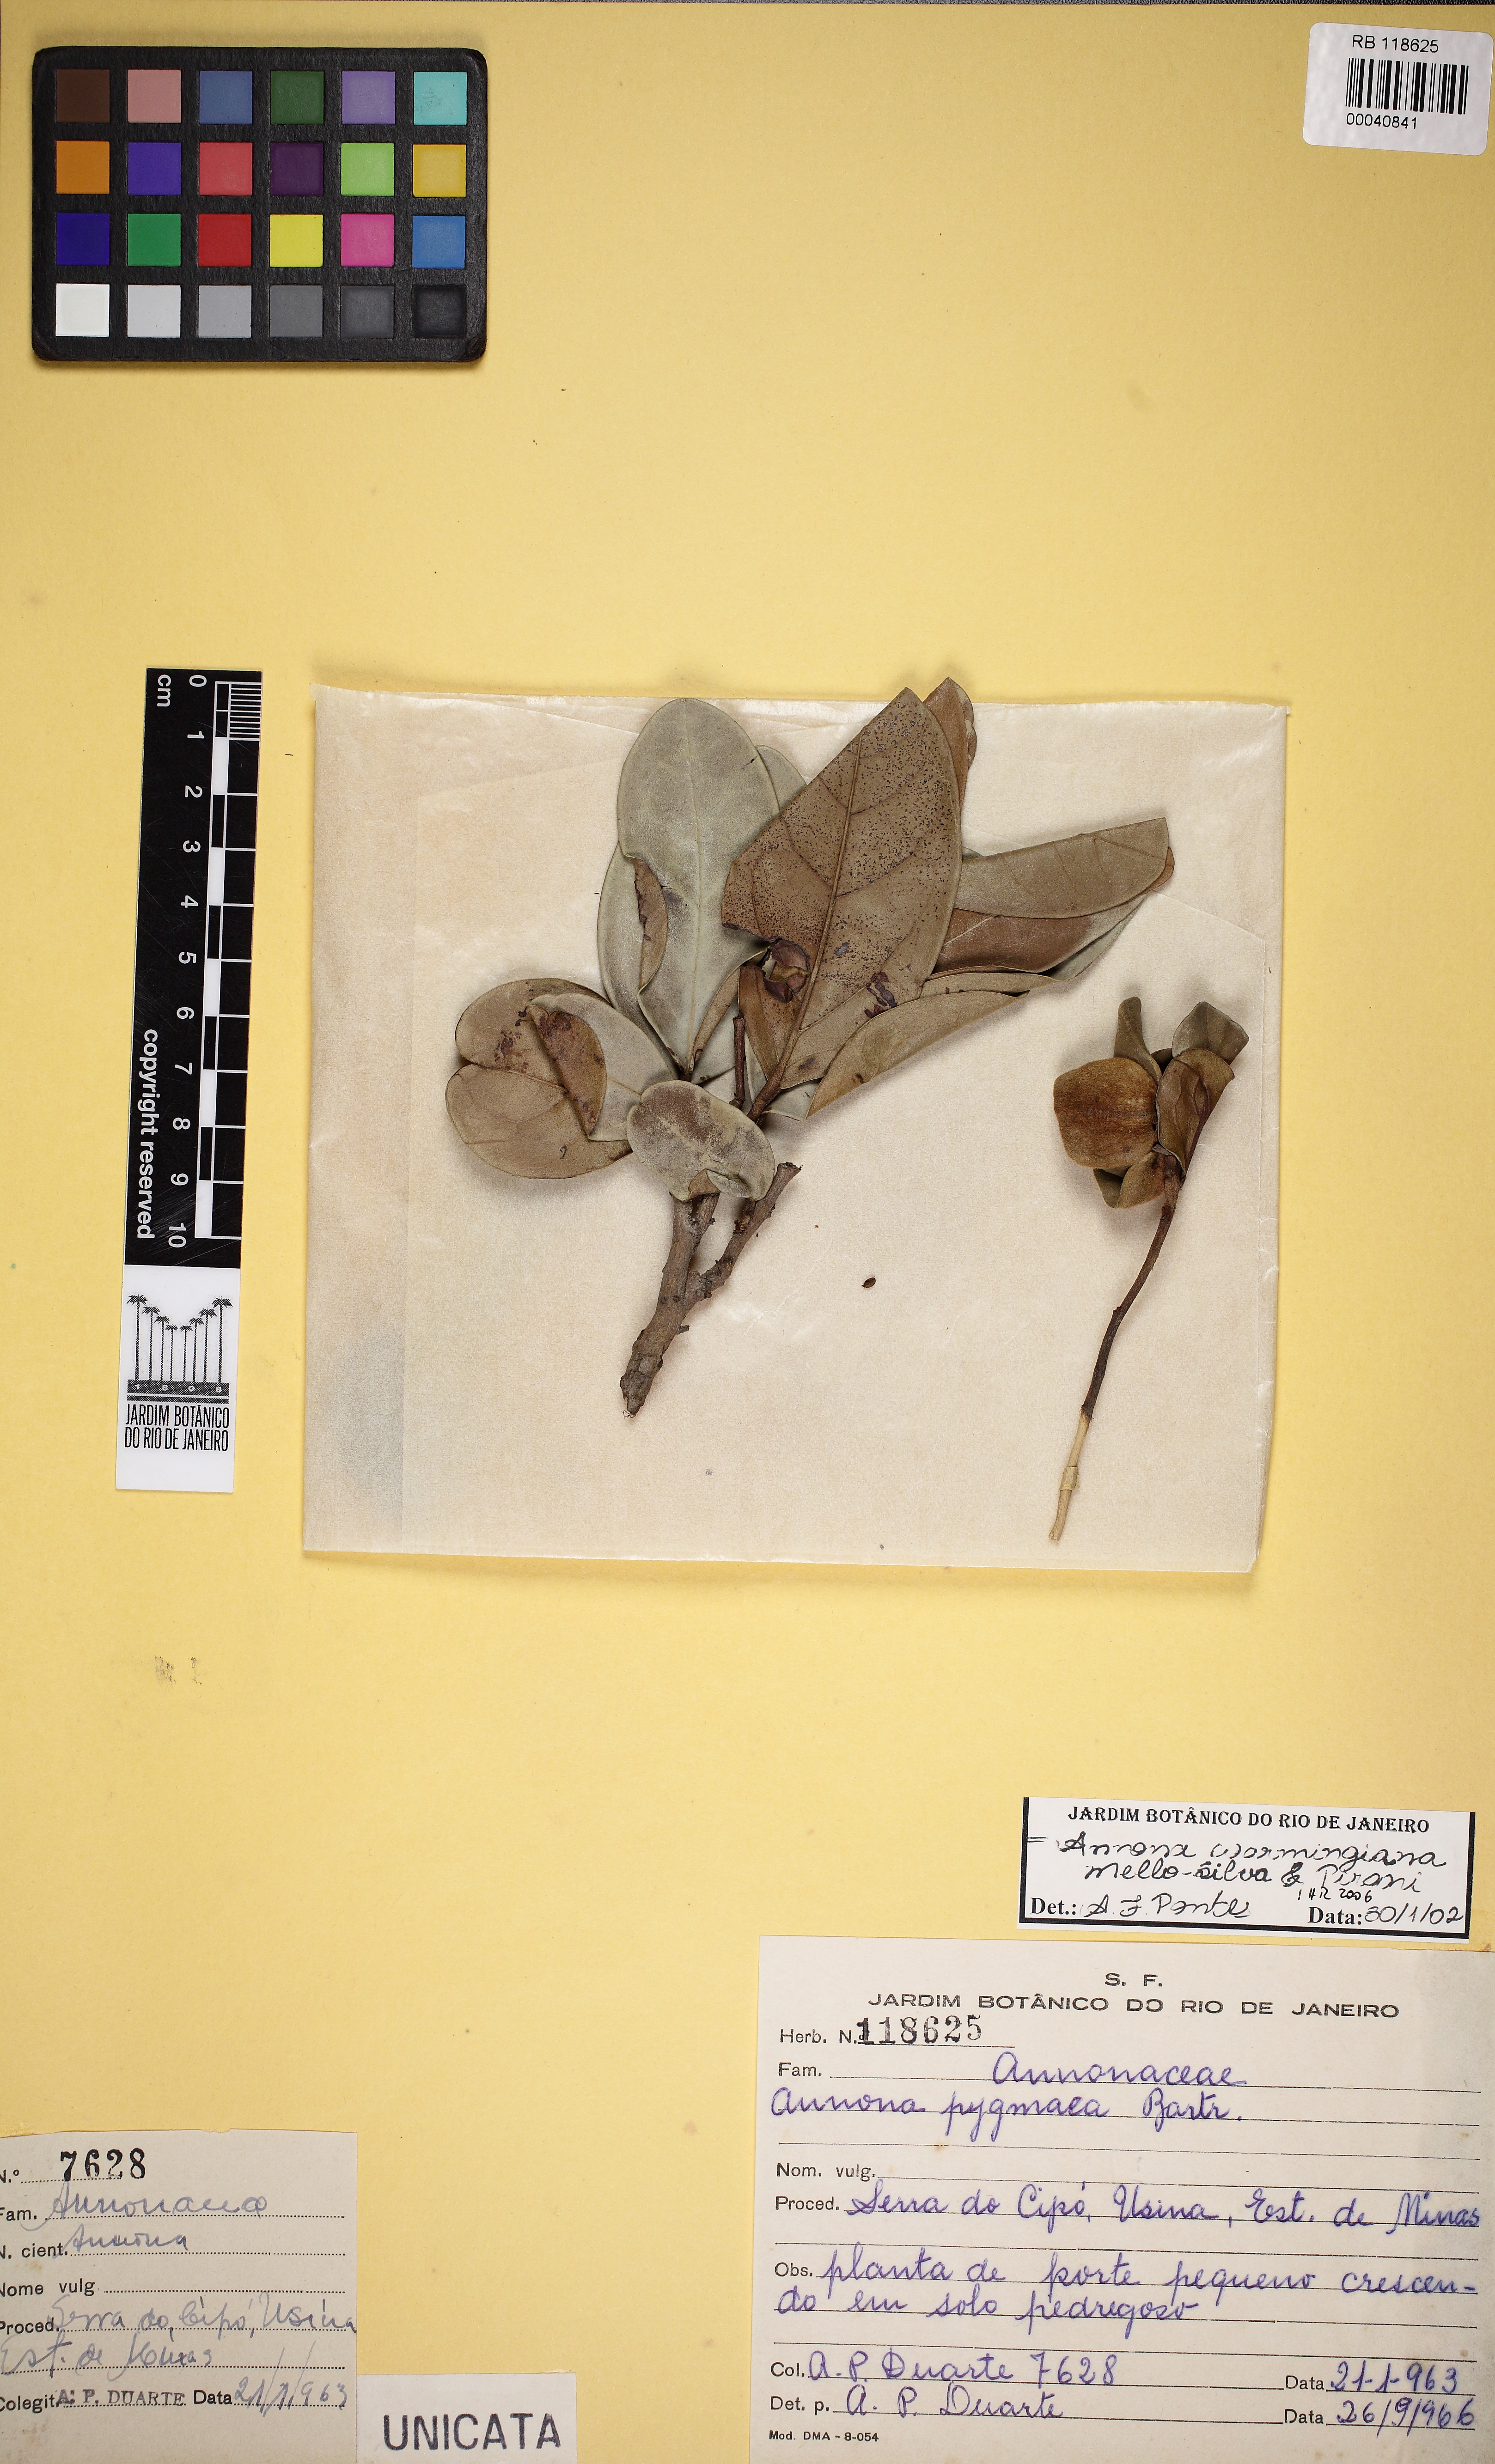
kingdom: Plantae
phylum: Tracheophyta
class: Magnoliopsida
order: Magnoliales
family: Annonaceae
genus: Annona
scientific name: Annona warmingiana
